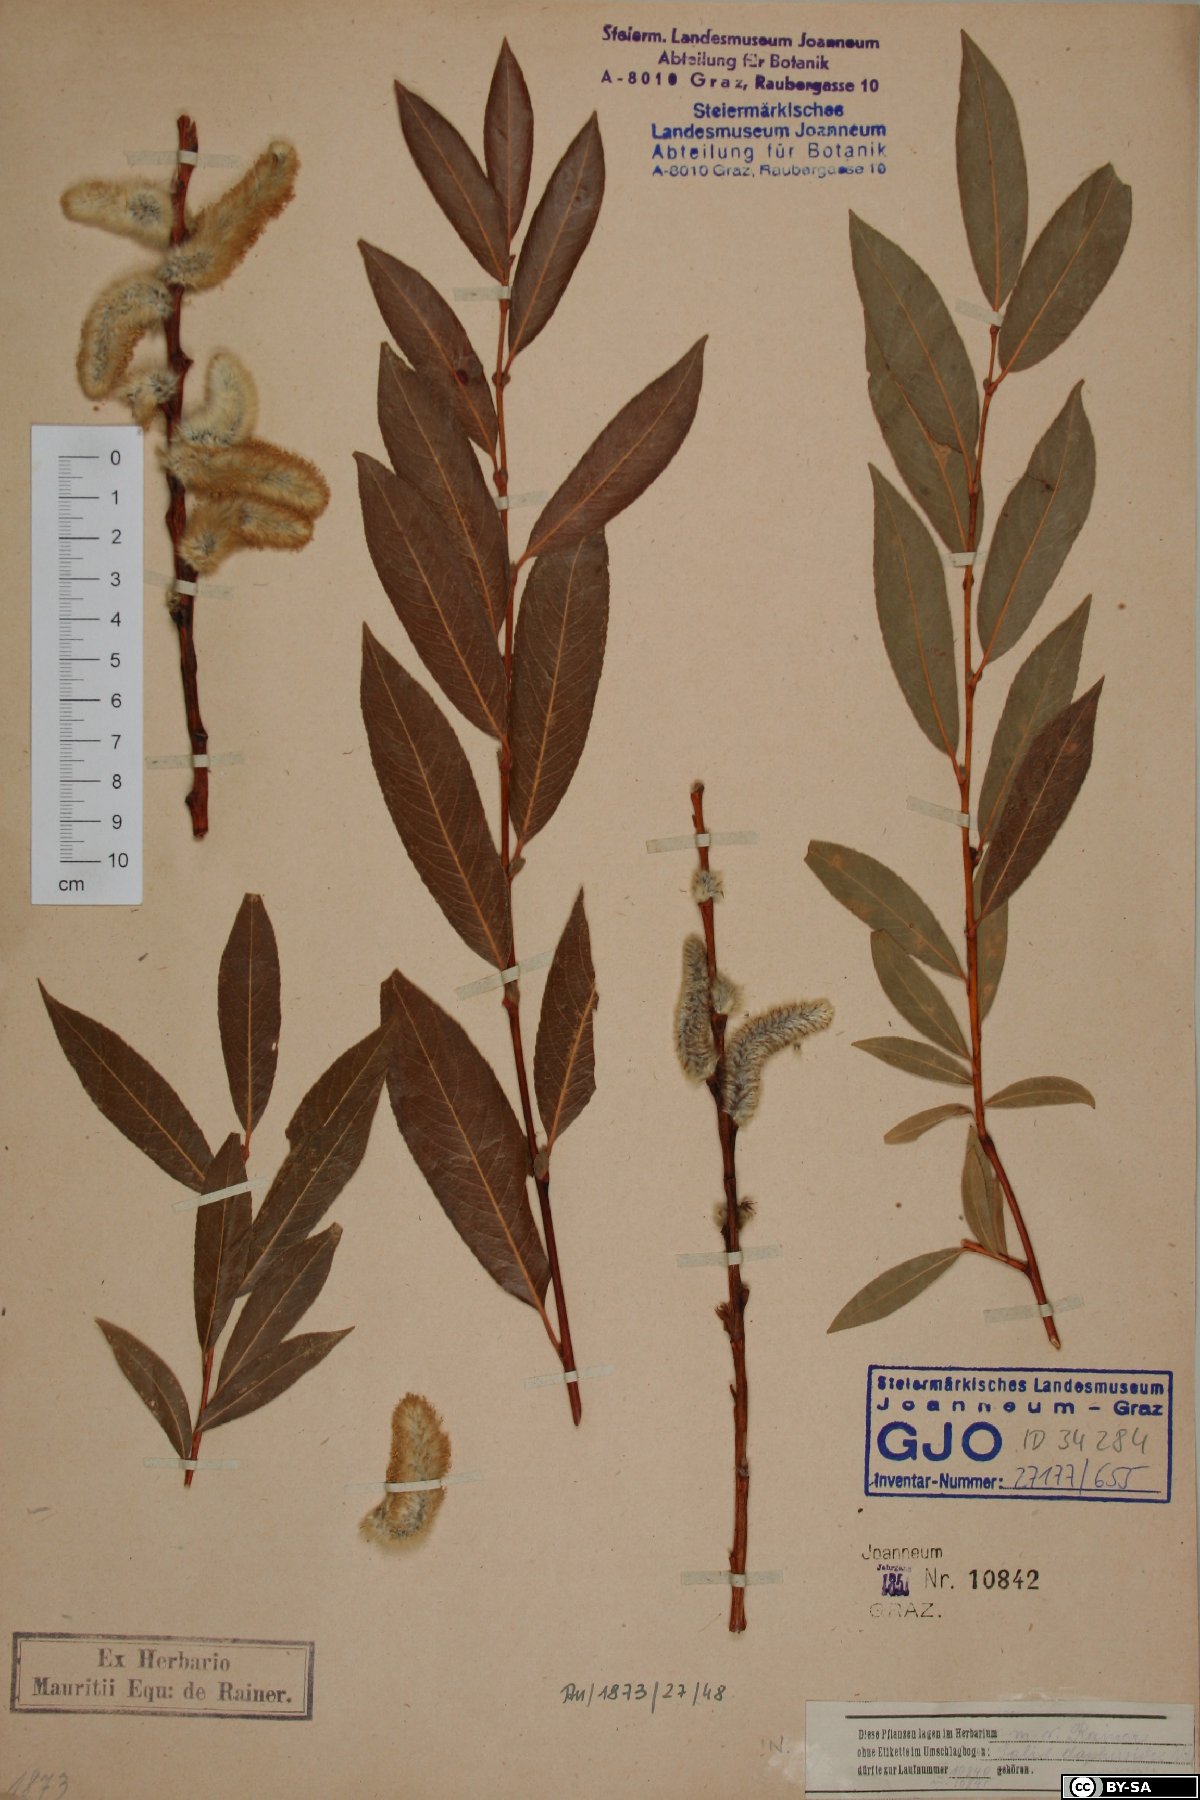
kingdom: Plantae
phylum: Tracheophyta
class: Magnoliopsida
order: Malpighiales
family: Salicaceae
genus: Salix
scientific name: Salix daphnoides
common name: European violet-willow
